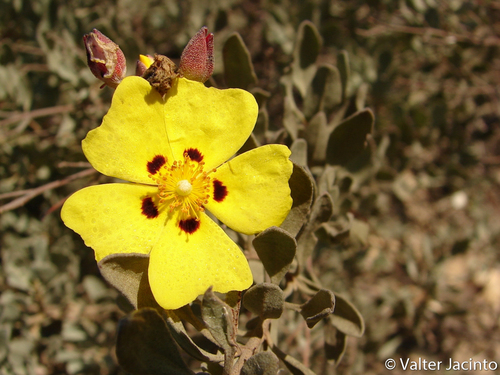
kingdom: Plantae
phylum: Tracheophyta
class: Magnoliopsida
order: Malvales
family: Cistaceae
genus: Halimium
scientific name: Halimium halimifolium
